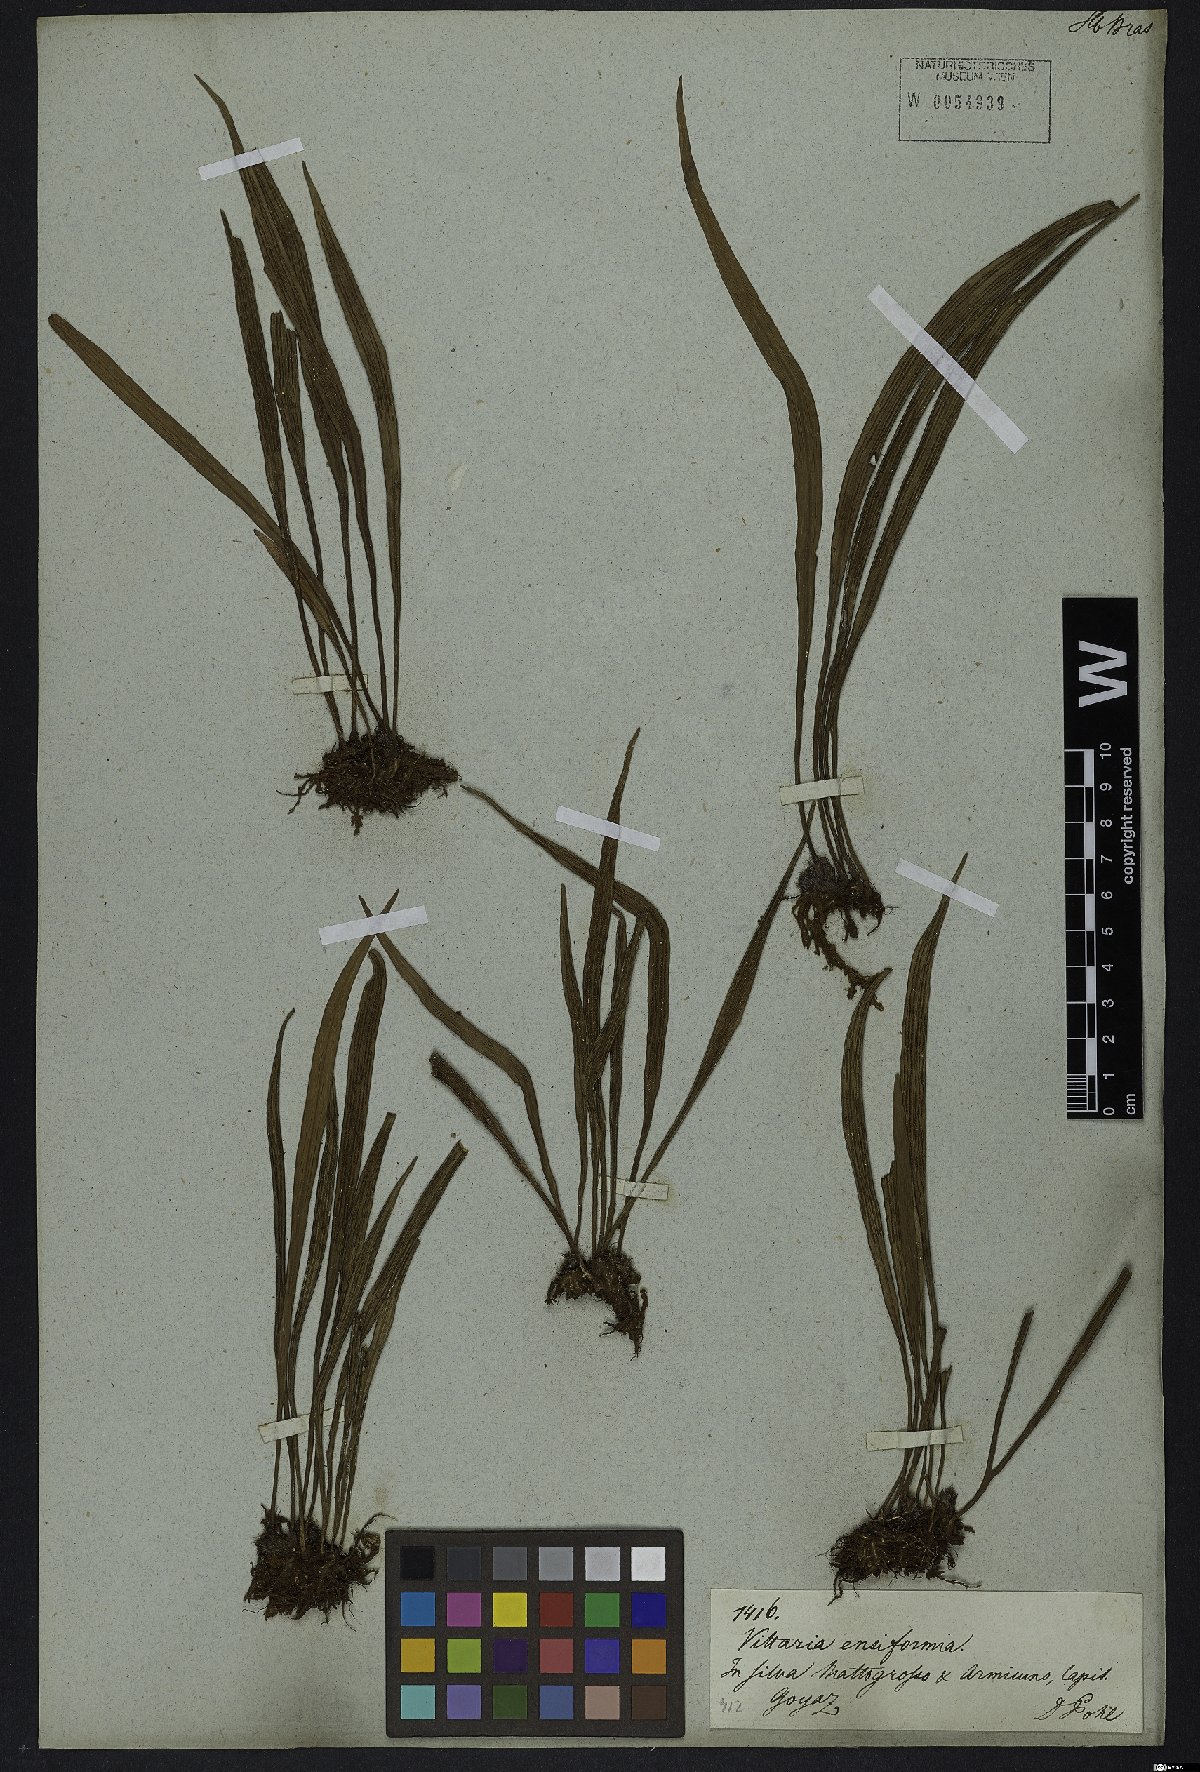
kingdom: Plantae
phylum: Tracheophyta
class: Polypodiopsida
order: Polypodiales
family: Pteridaceae
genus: Polytaenium
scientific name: Polytaenium lineatum
